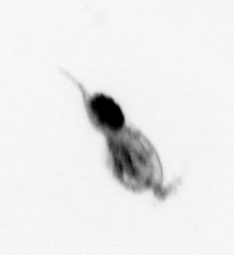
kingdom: Animalia
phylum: Arthropoda
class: Copepoda
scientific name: Copepoda
